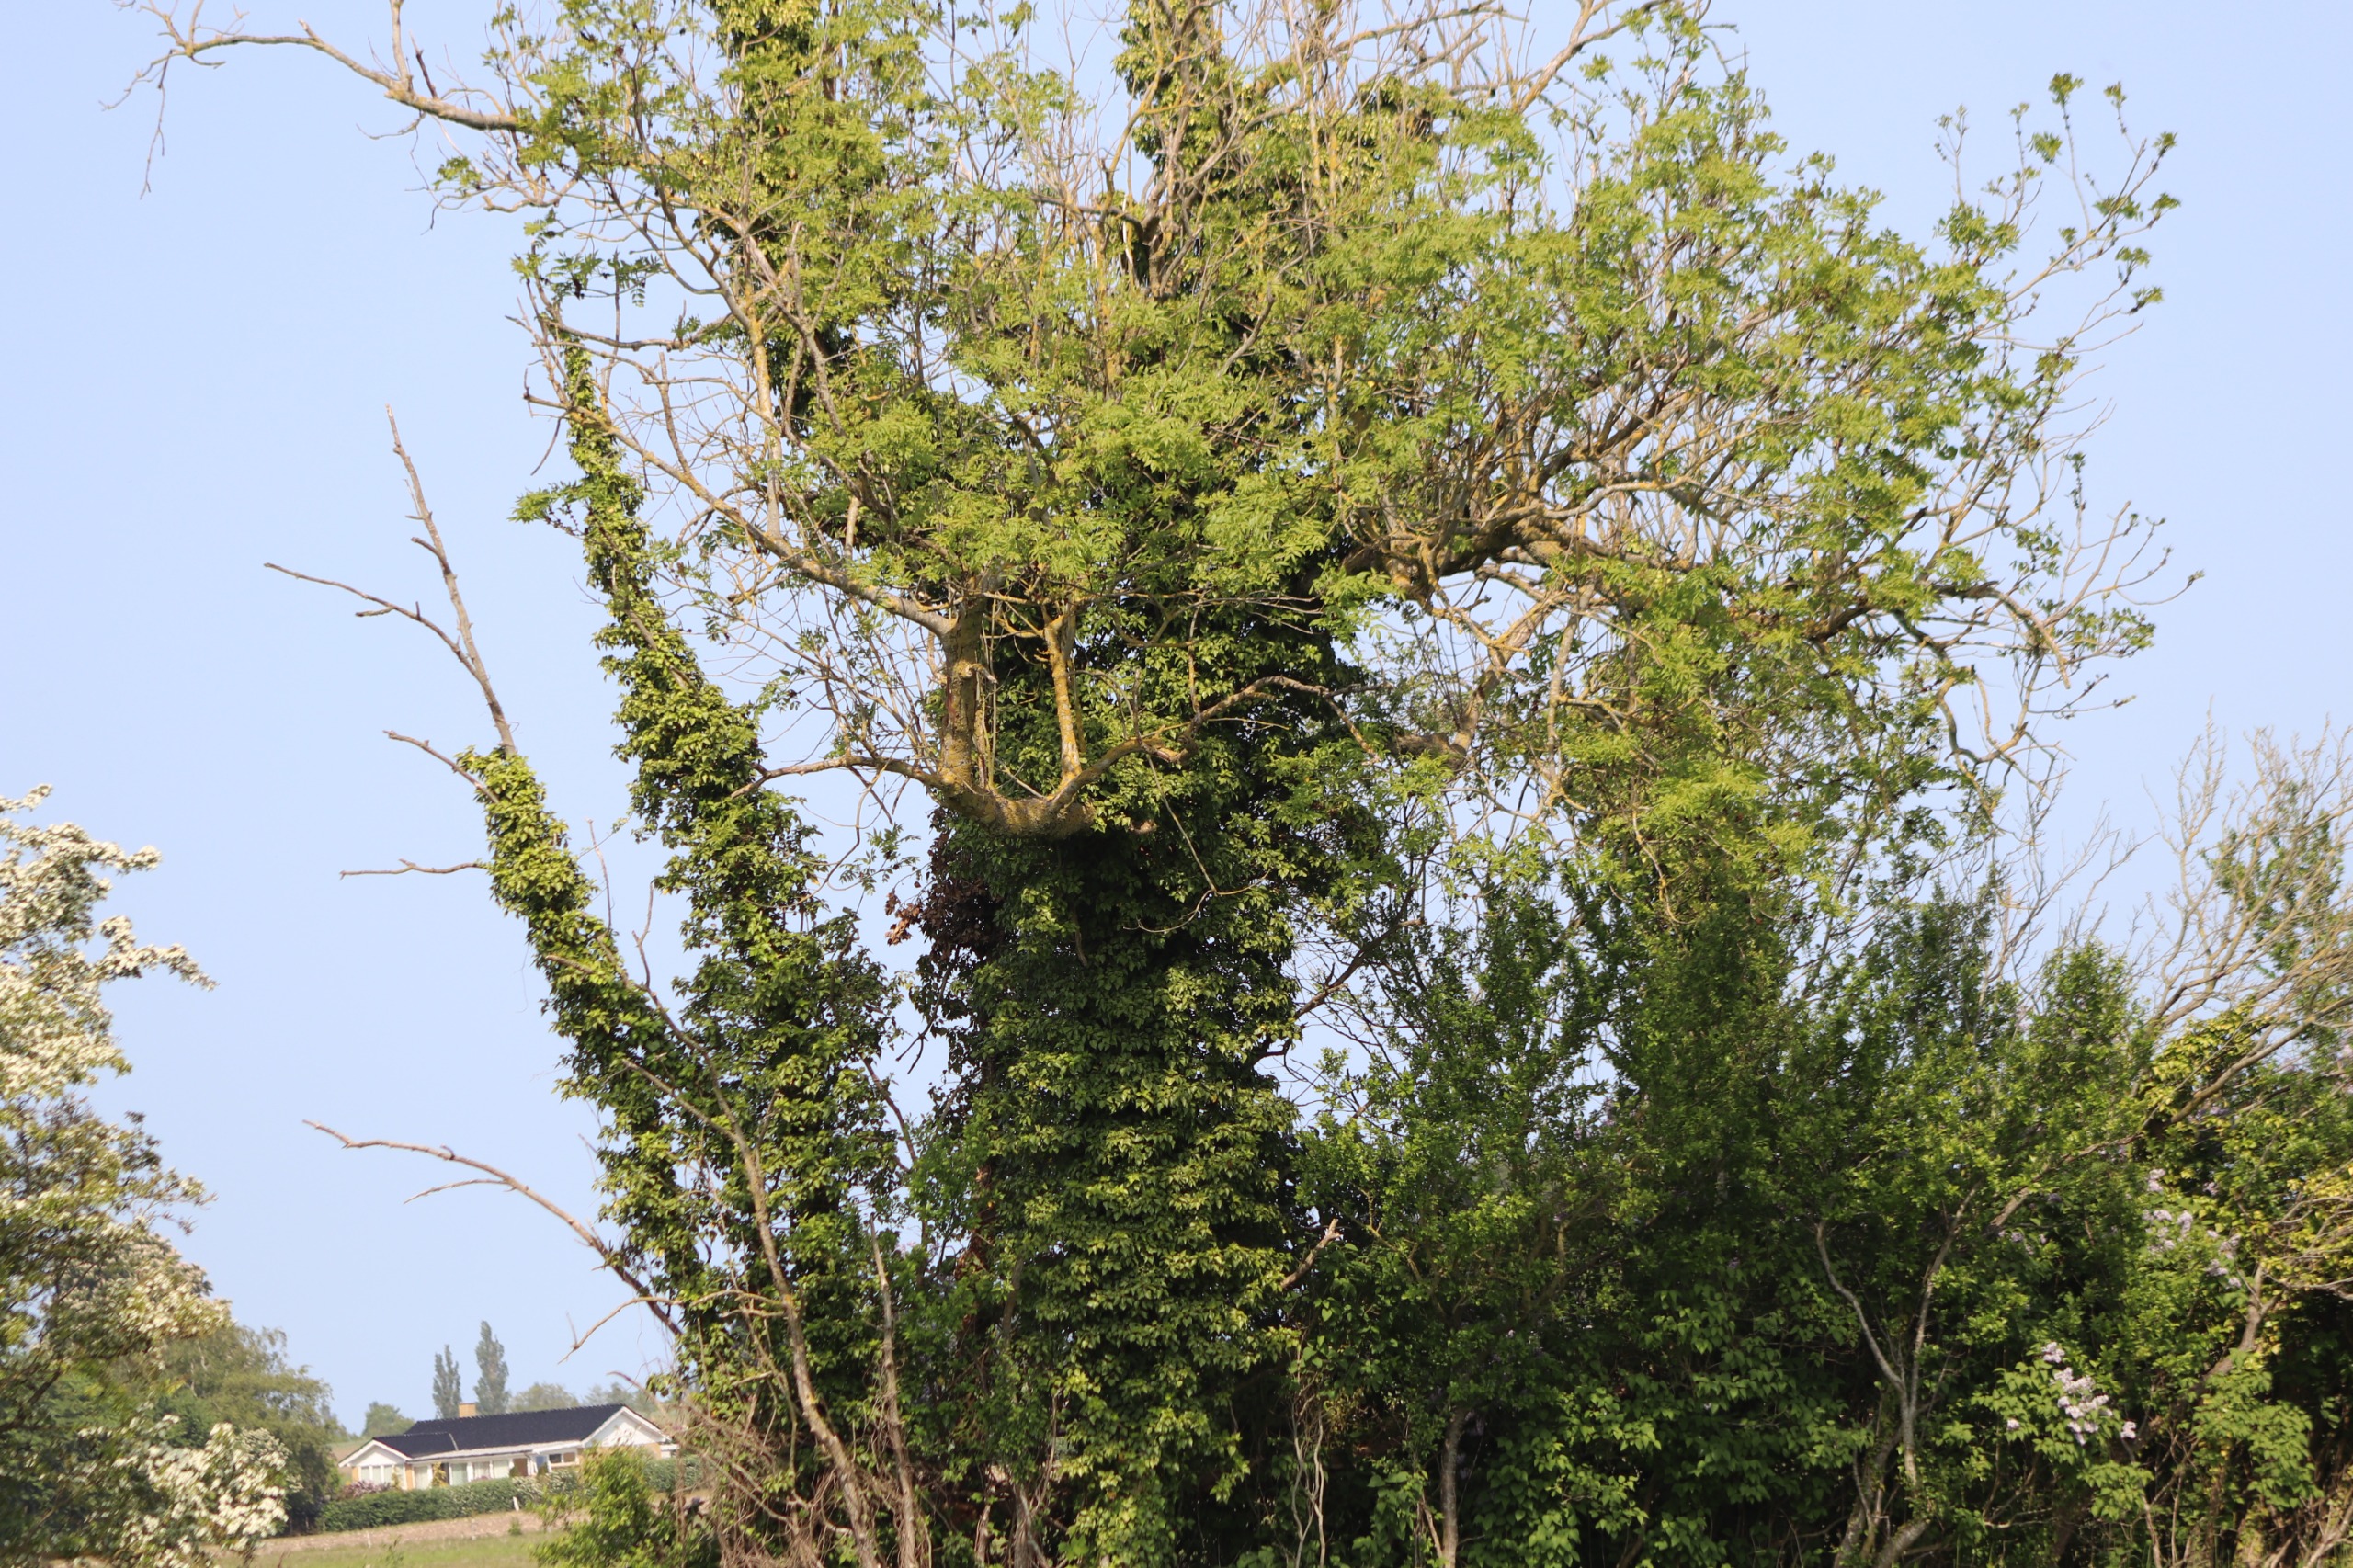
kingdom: Plantae
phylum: Tracheophyta
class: Magnoliopsida
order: Apiales
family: Araliaceae
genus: Hedera
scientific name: Hedera helix
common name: Vedbend
